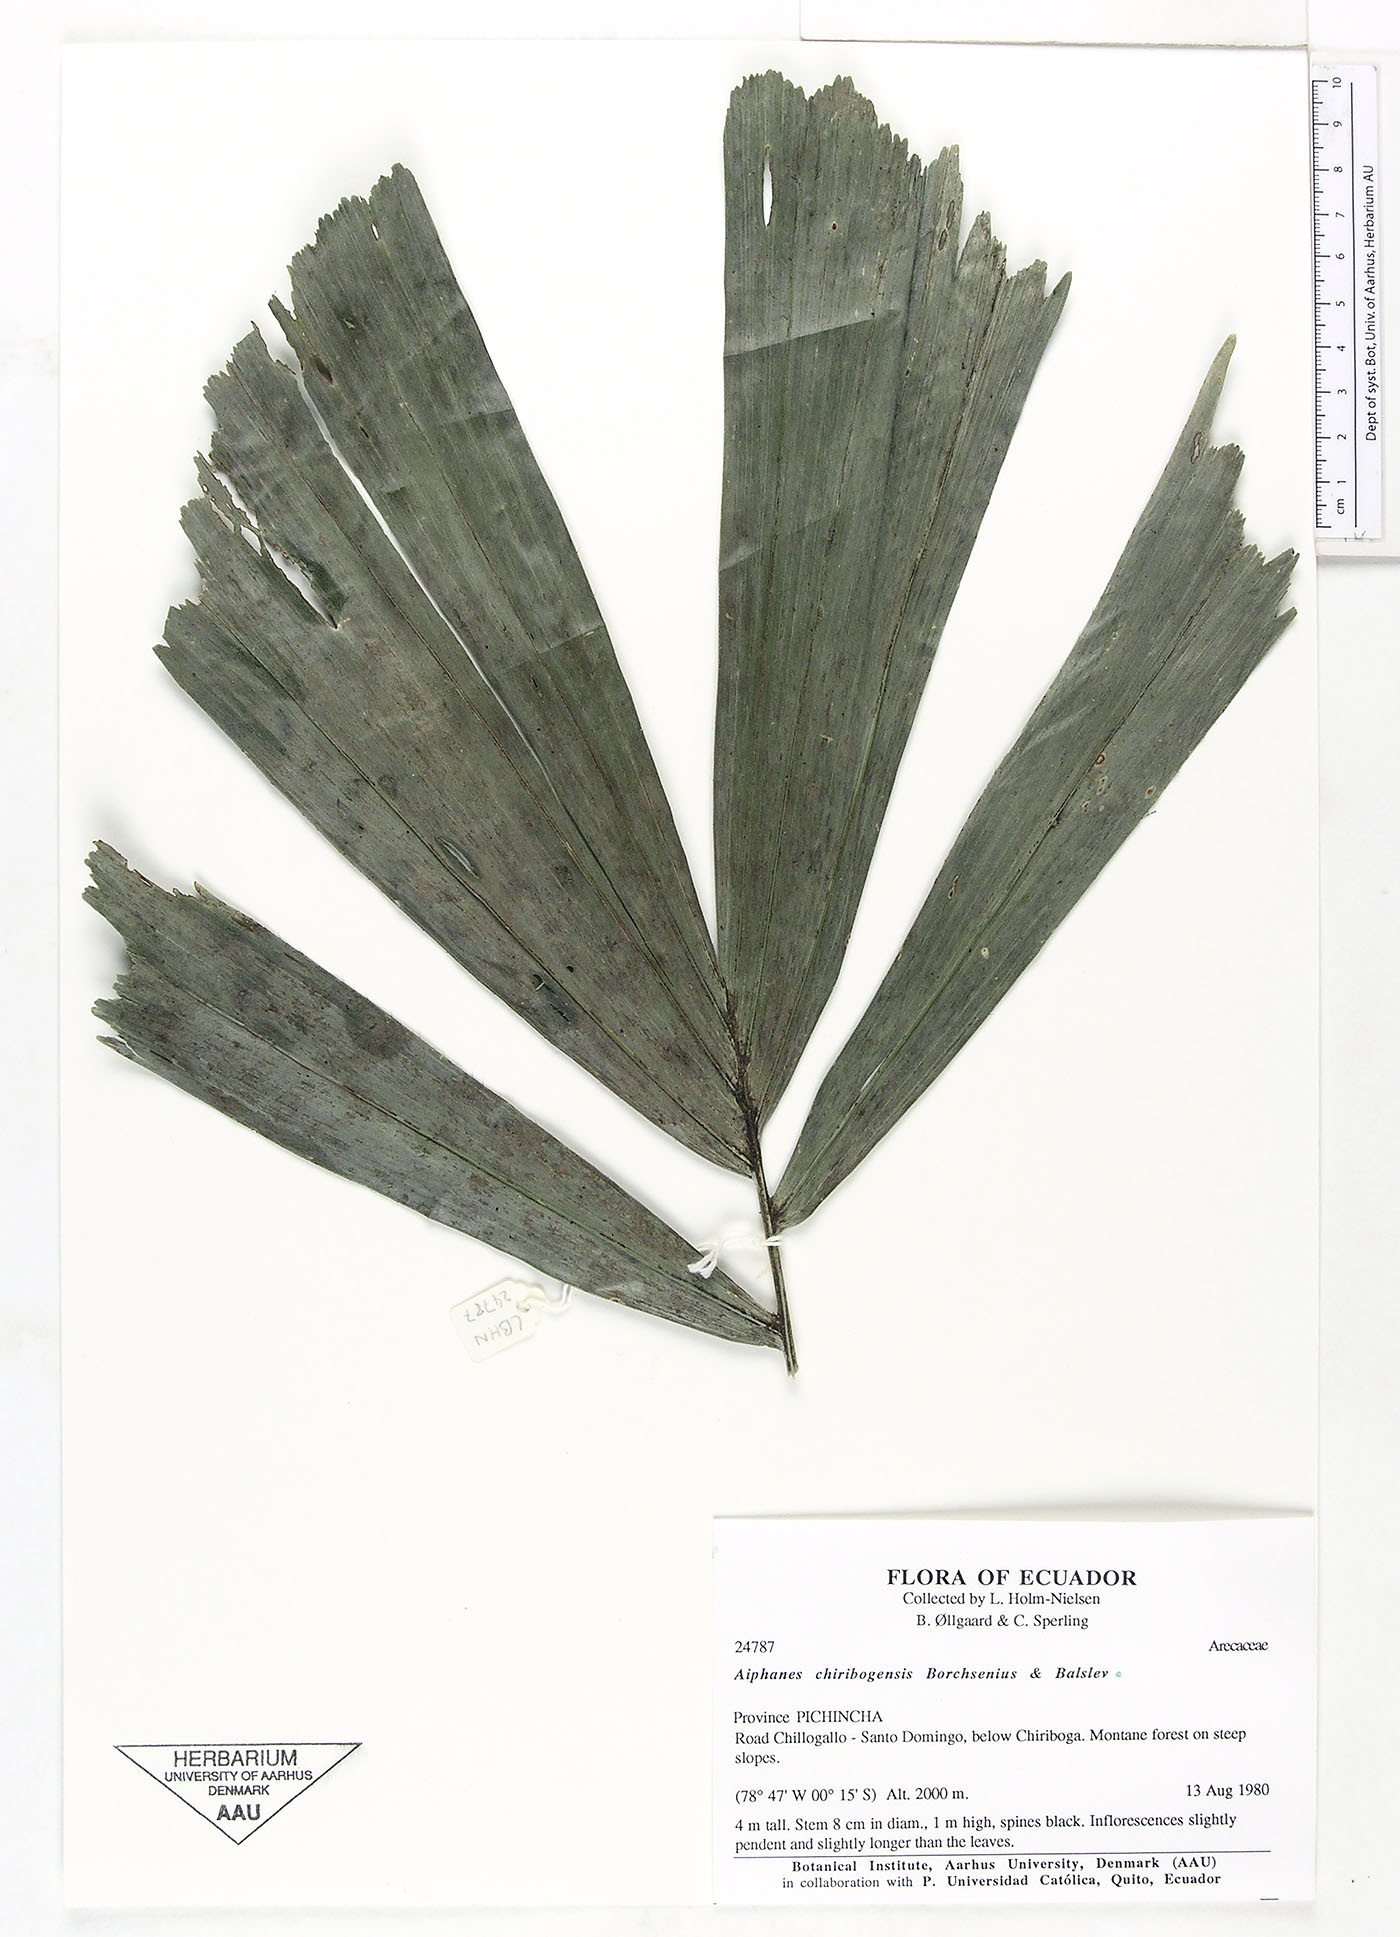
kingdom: Plantae
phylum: Tracheophyta
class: Liliopsida
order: Arecales
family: Arecaceae
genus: Aiphanes
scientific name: Aiphanes chiribogensis
